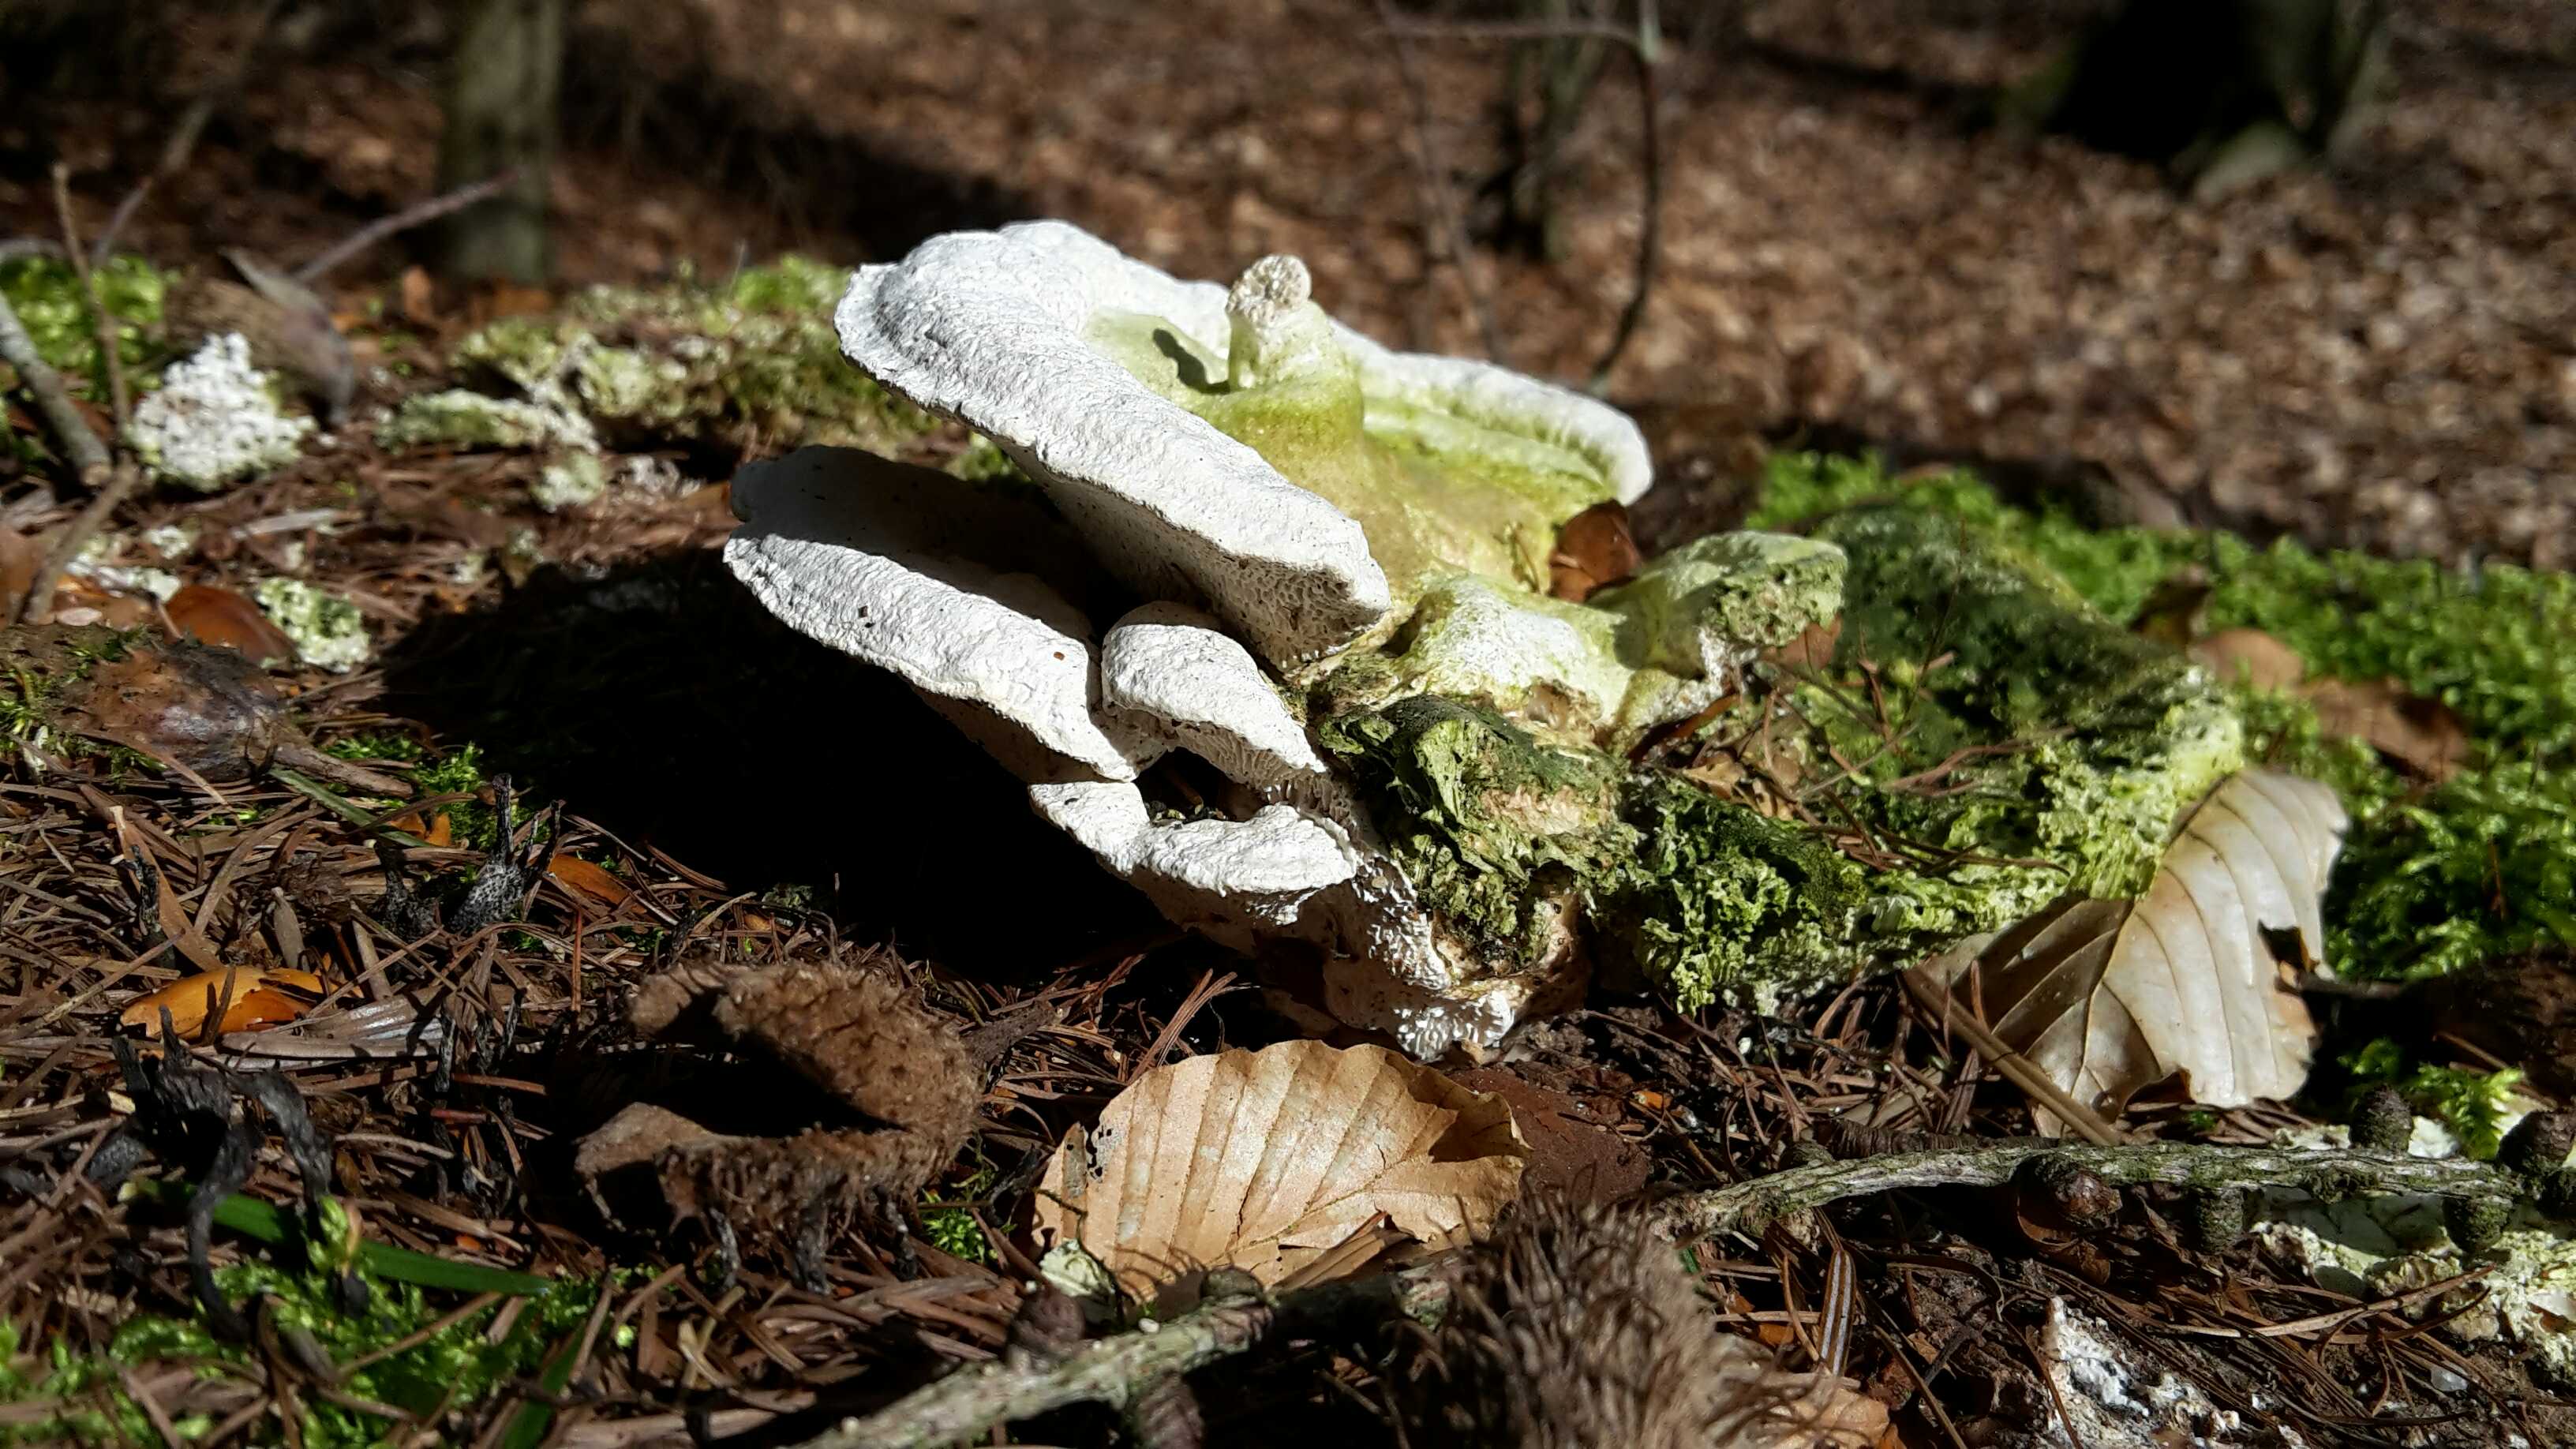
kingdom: Fungi
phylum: Basidiomycota
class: Agaricomycetes
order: Polyporales
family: Polyporaceae
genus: Trametes
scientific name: Trametes gibbosa
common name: puklet læderporesvamp
